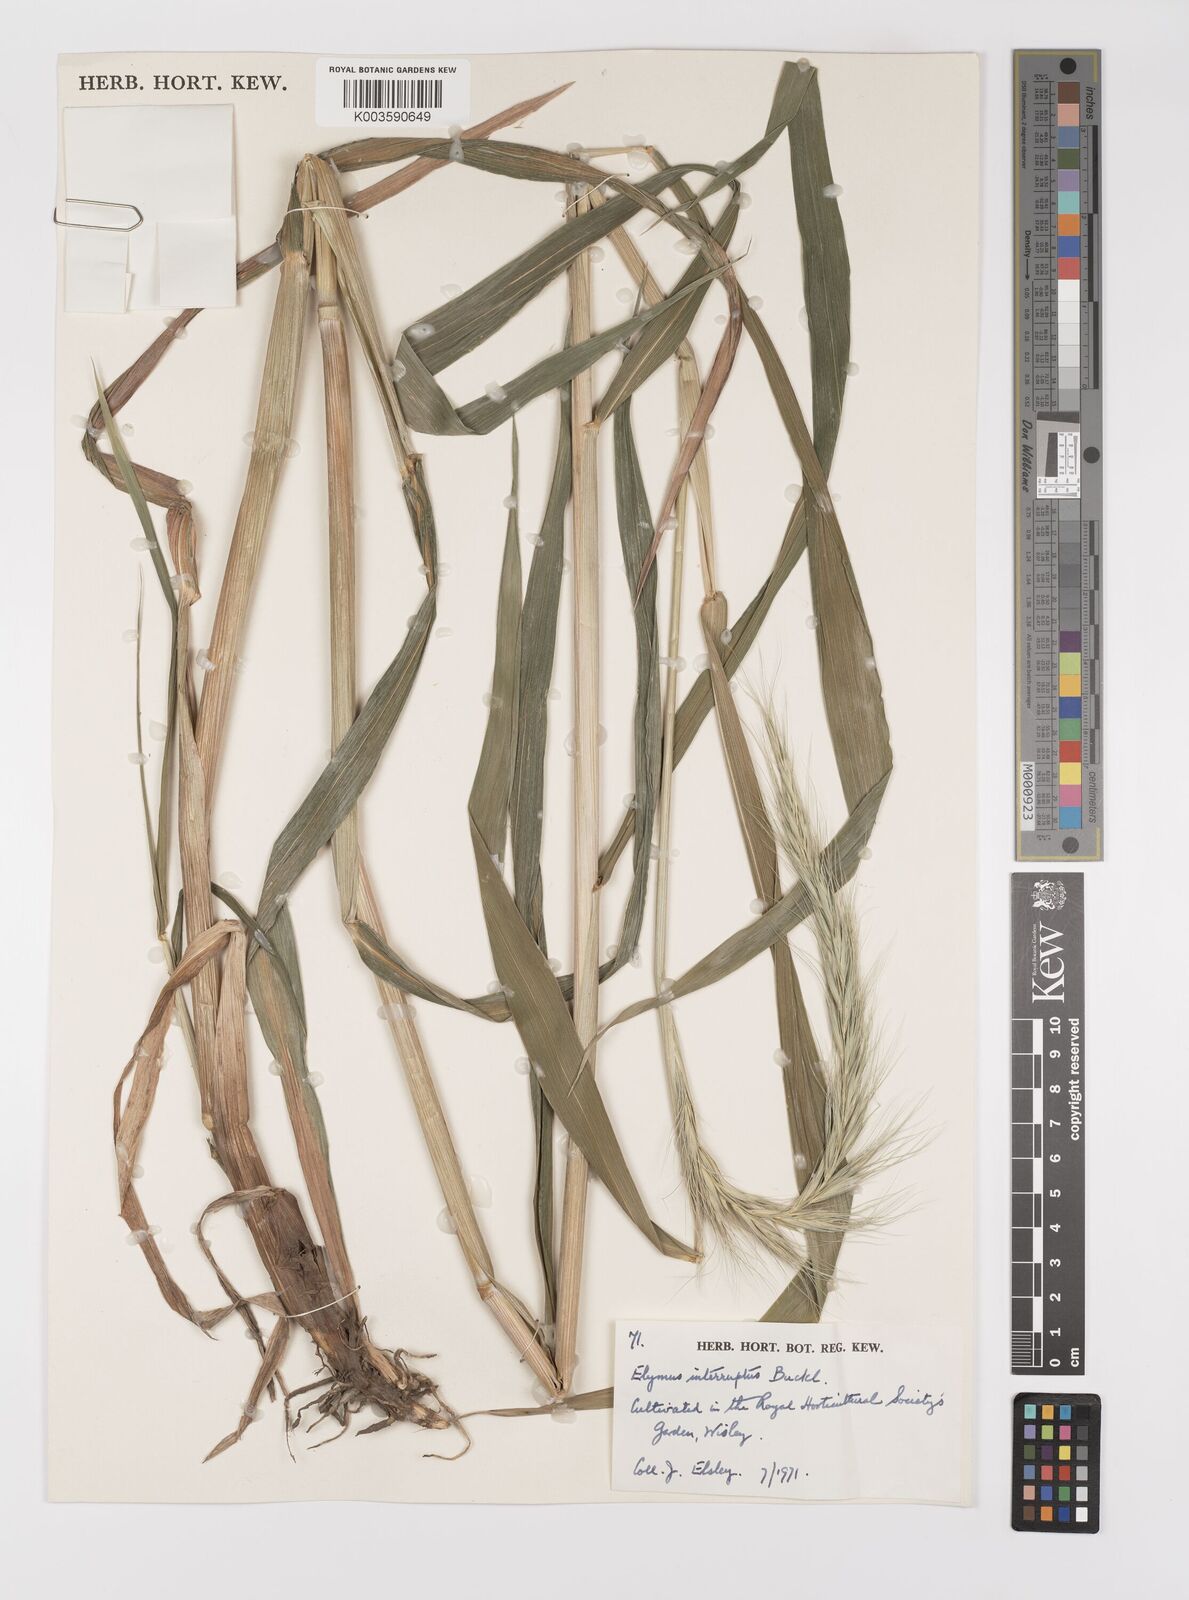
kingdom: Plantae
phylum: Tracheophyta
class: Liliopsida
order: Poales
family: Poaceae
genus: Elymus
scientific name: Elymus interruptus
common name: Southwestern wild rye
